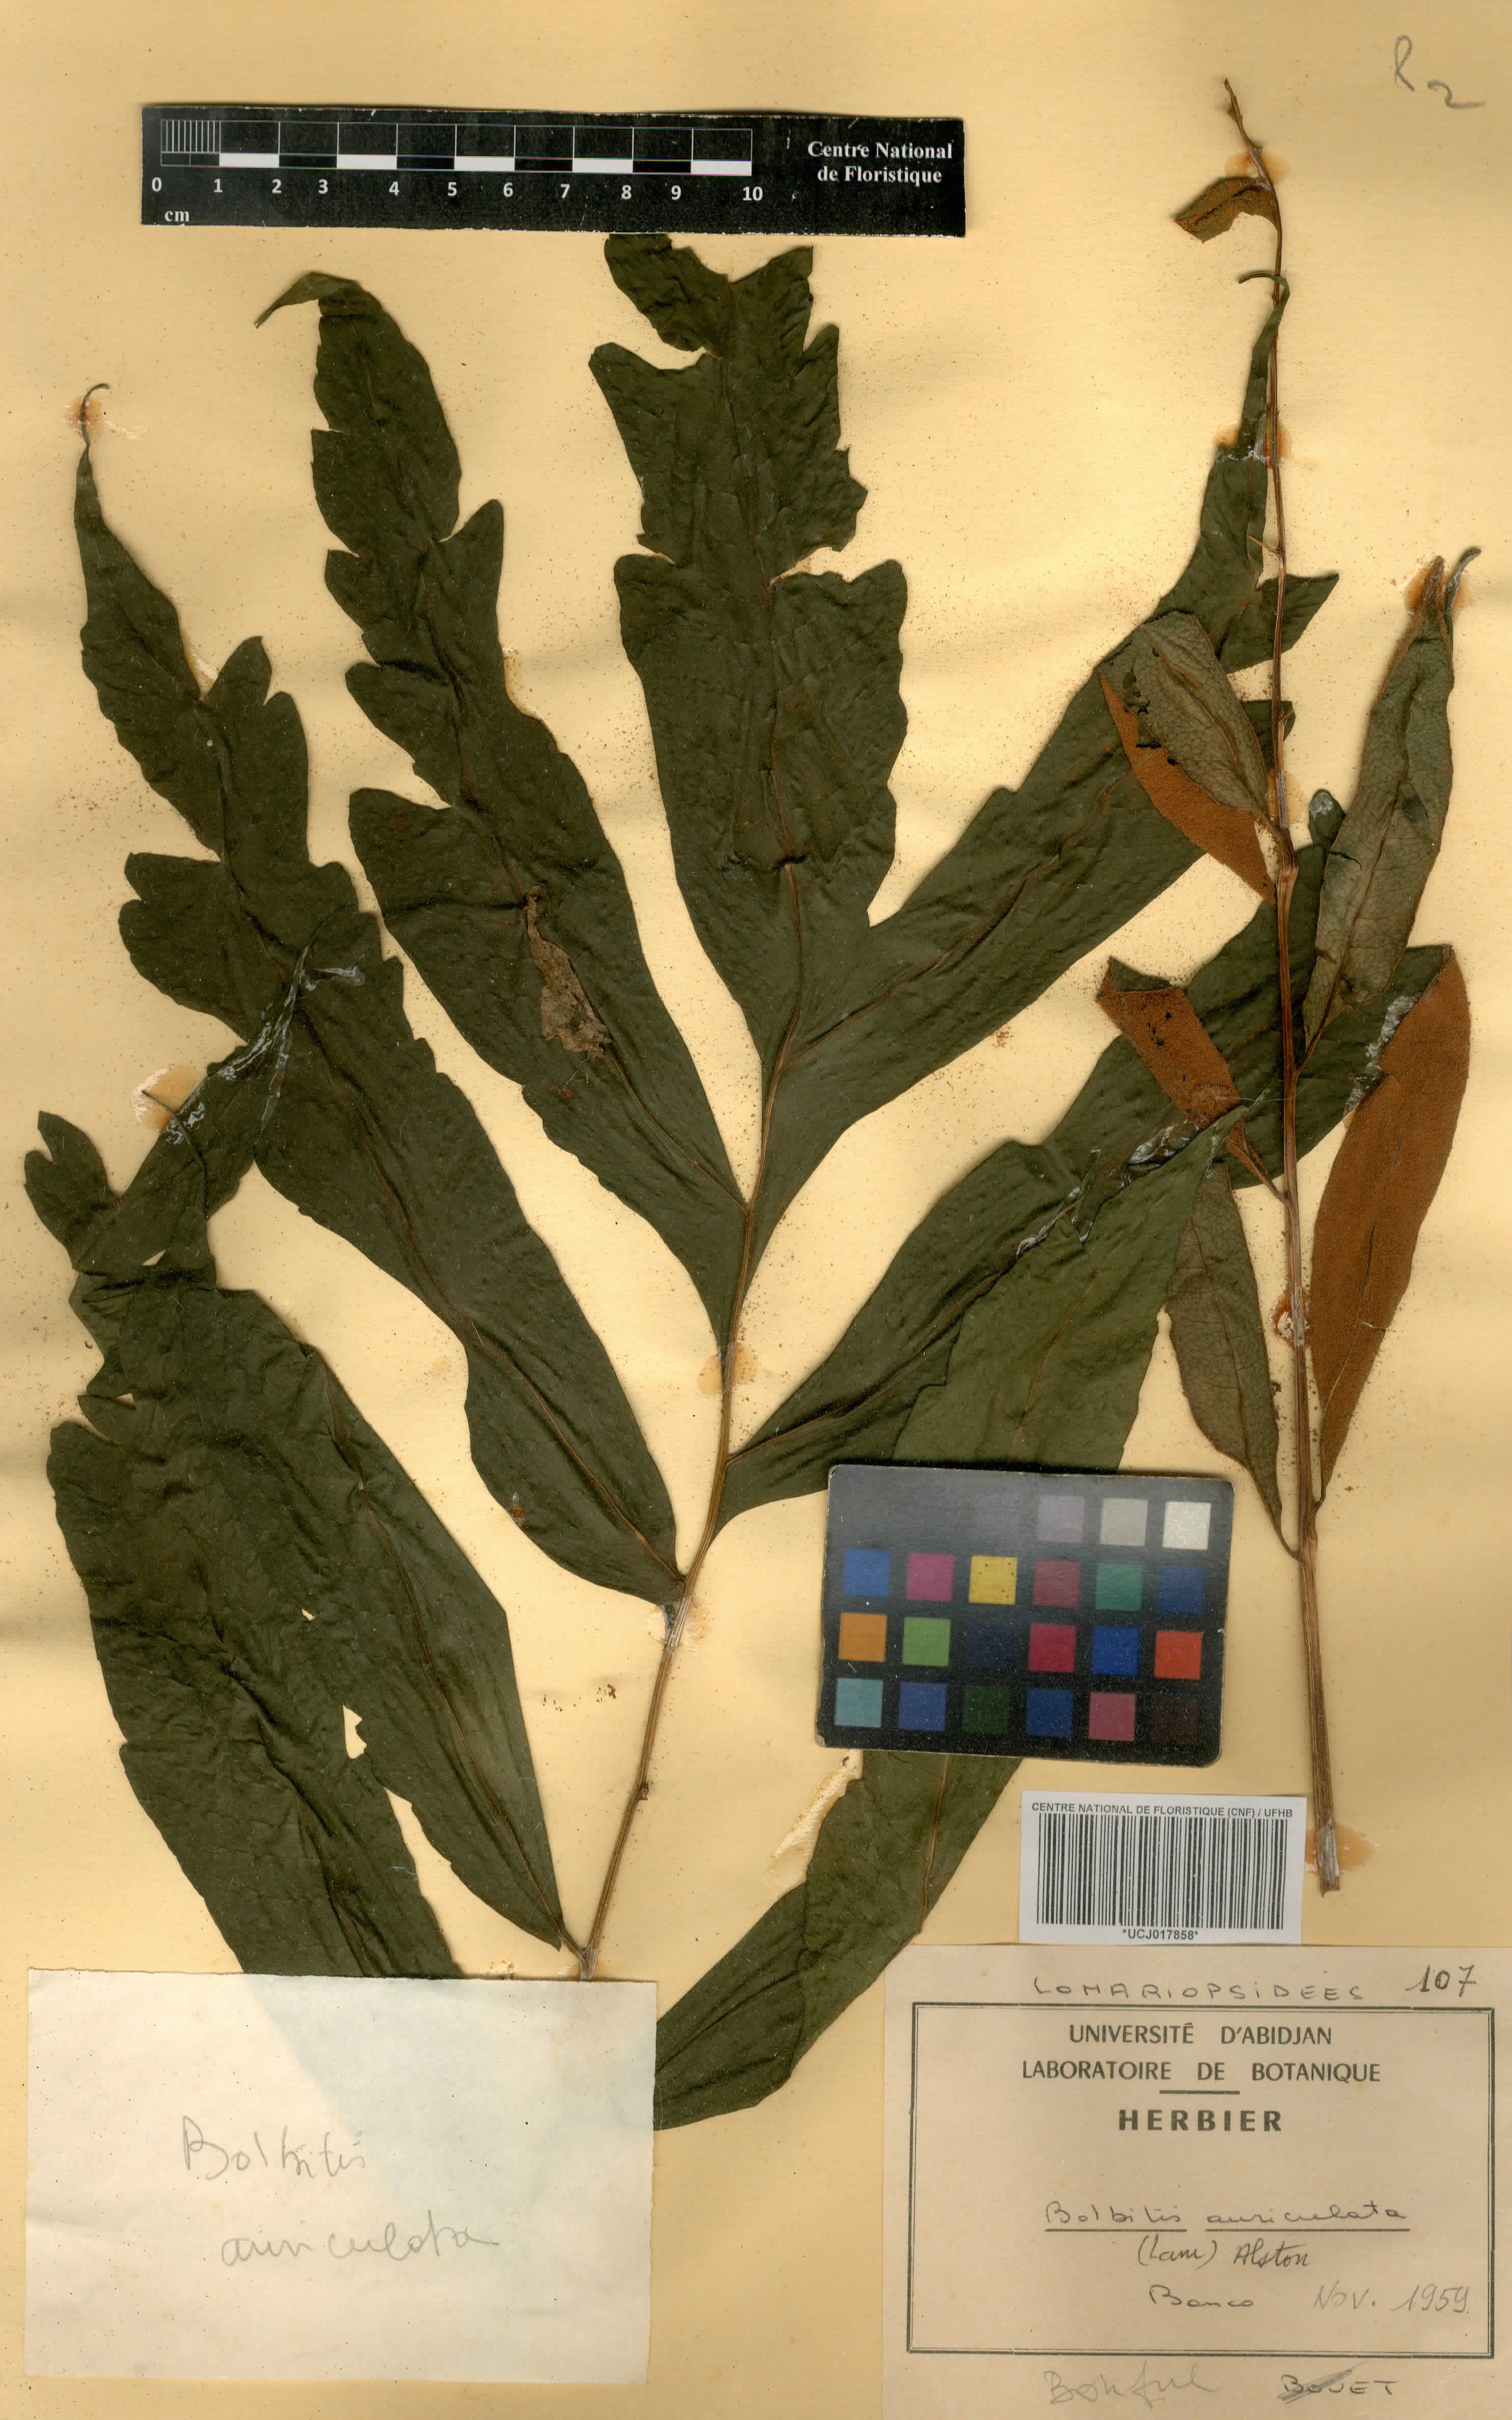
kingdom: Plantae
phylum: Tracheophyta
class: Polypodiopsida
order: Polypodiales
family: Dryopteridaceae
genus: Bolbitis
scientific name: Bolbitis auriculata
